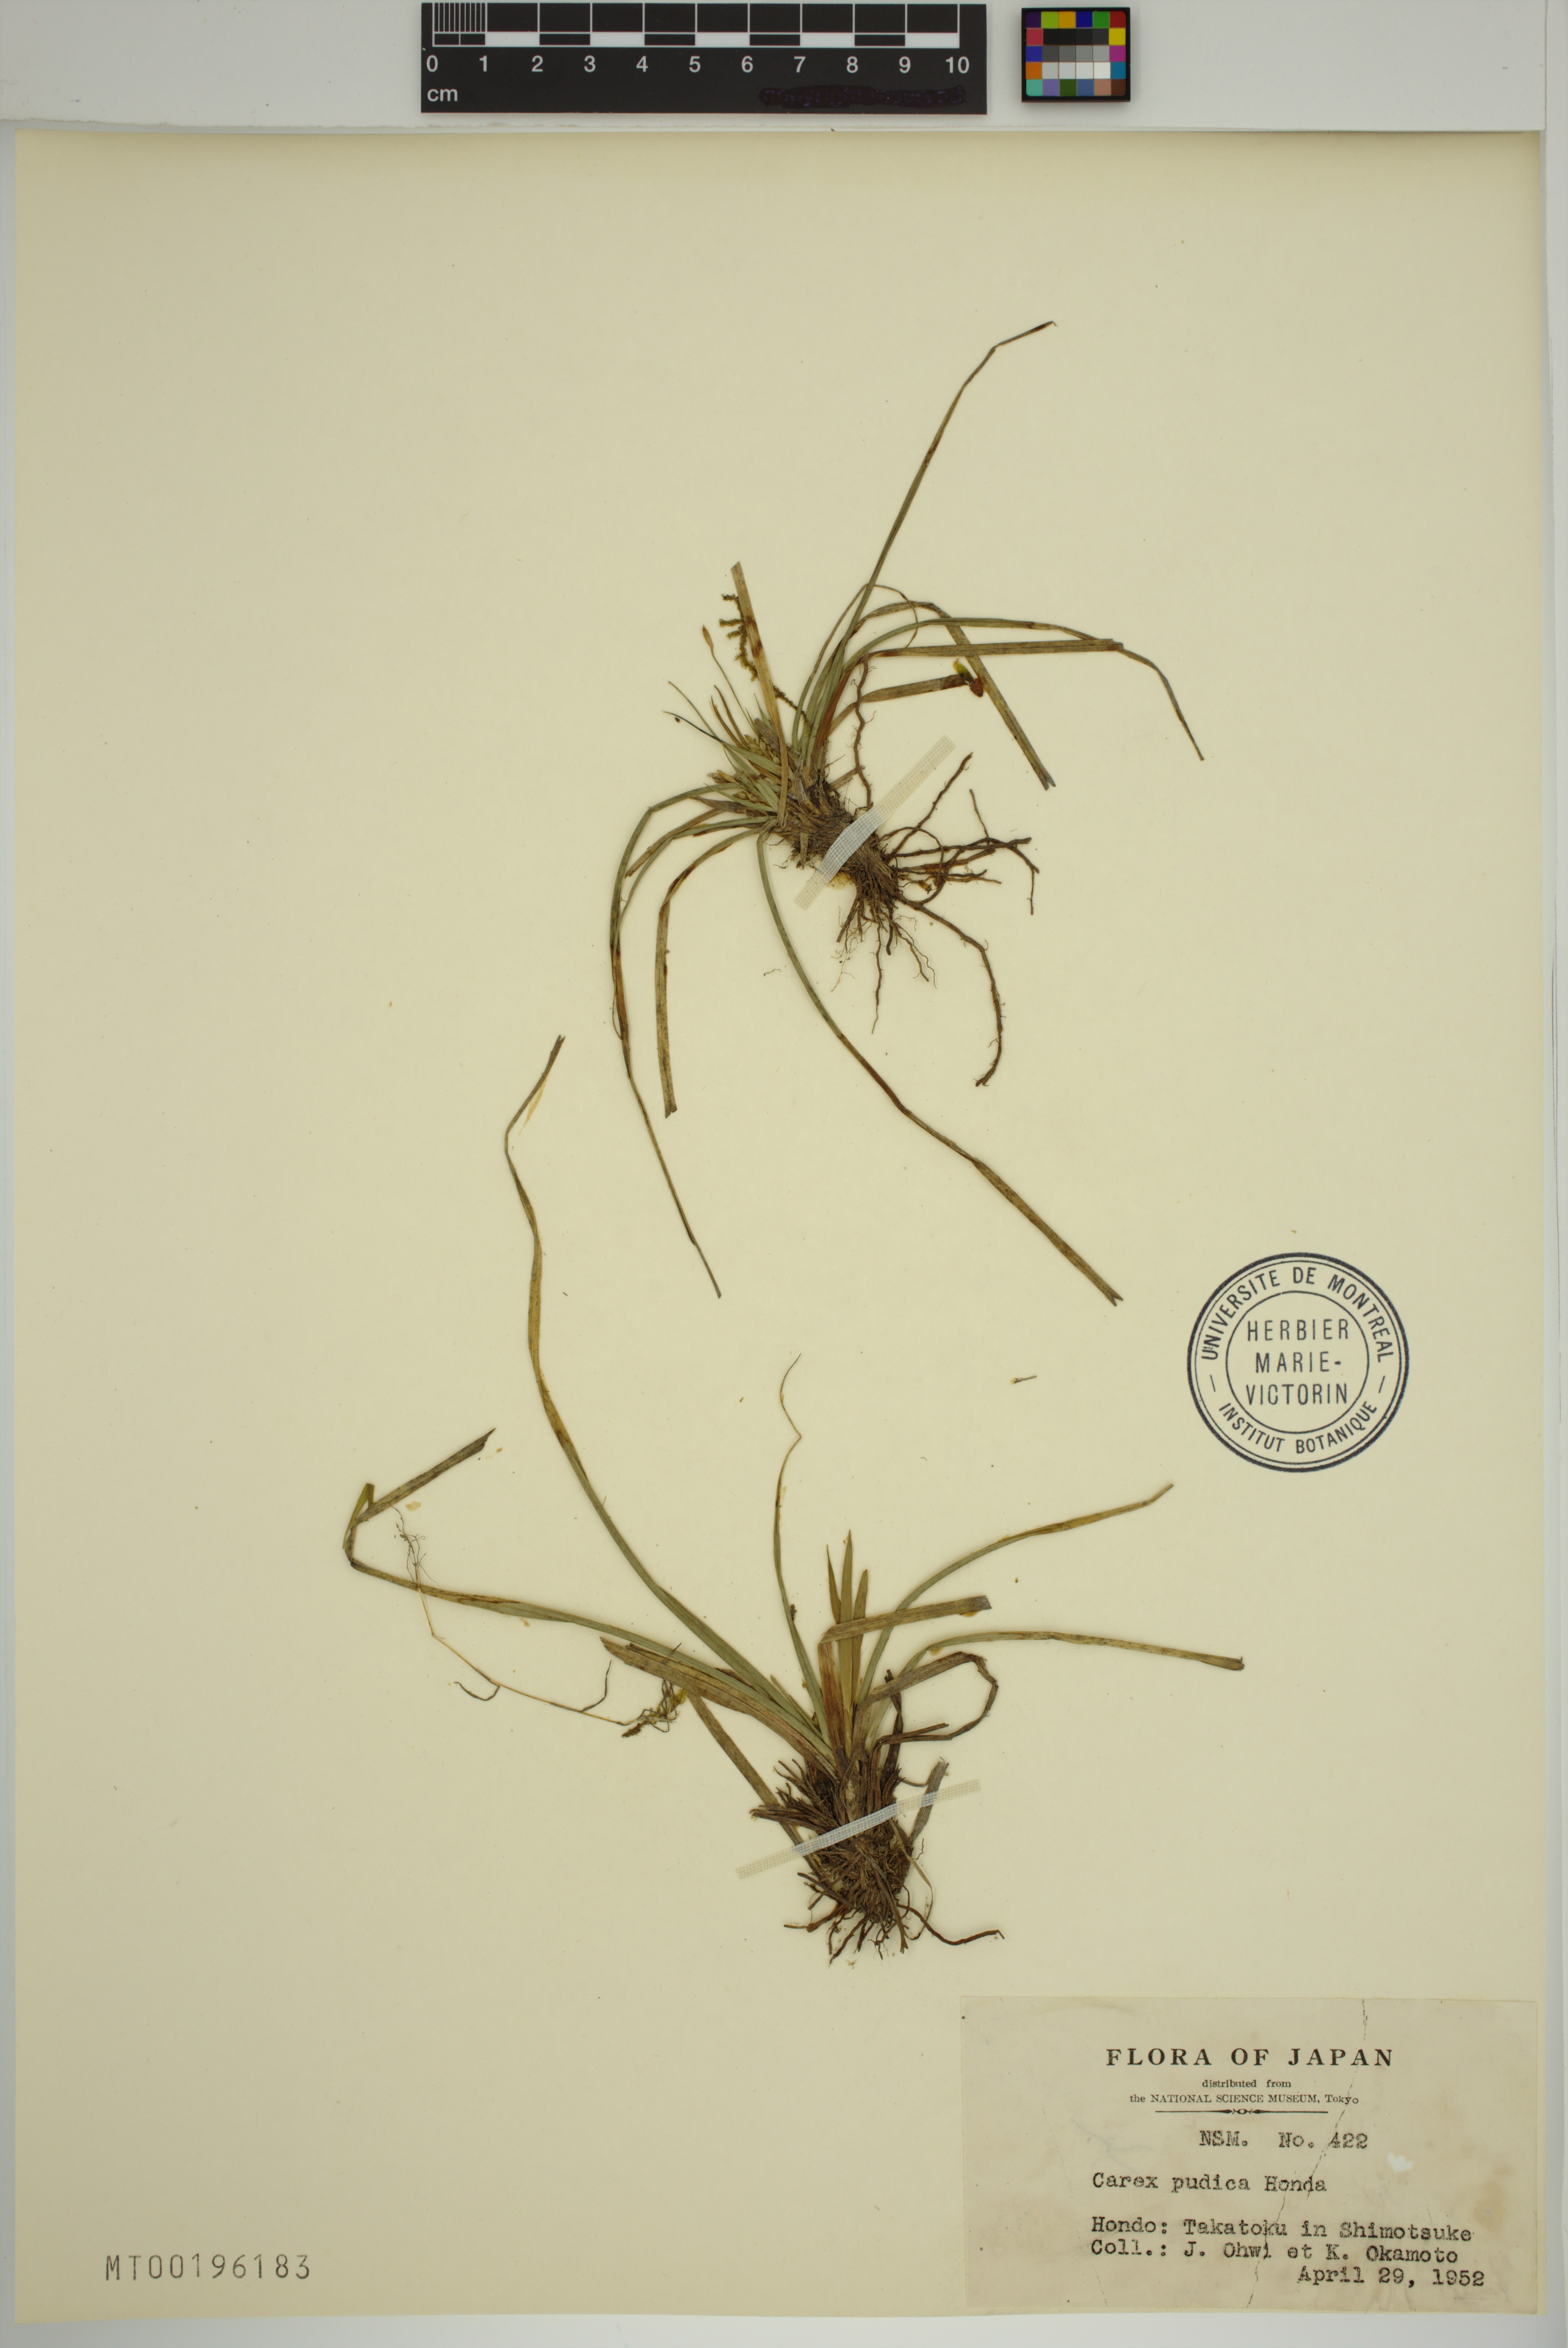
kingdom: Plantae
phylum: Tracheophyta
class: Liliopsida
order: Poales
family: Cyperaceae
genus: Carex
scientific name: Carex pudica
